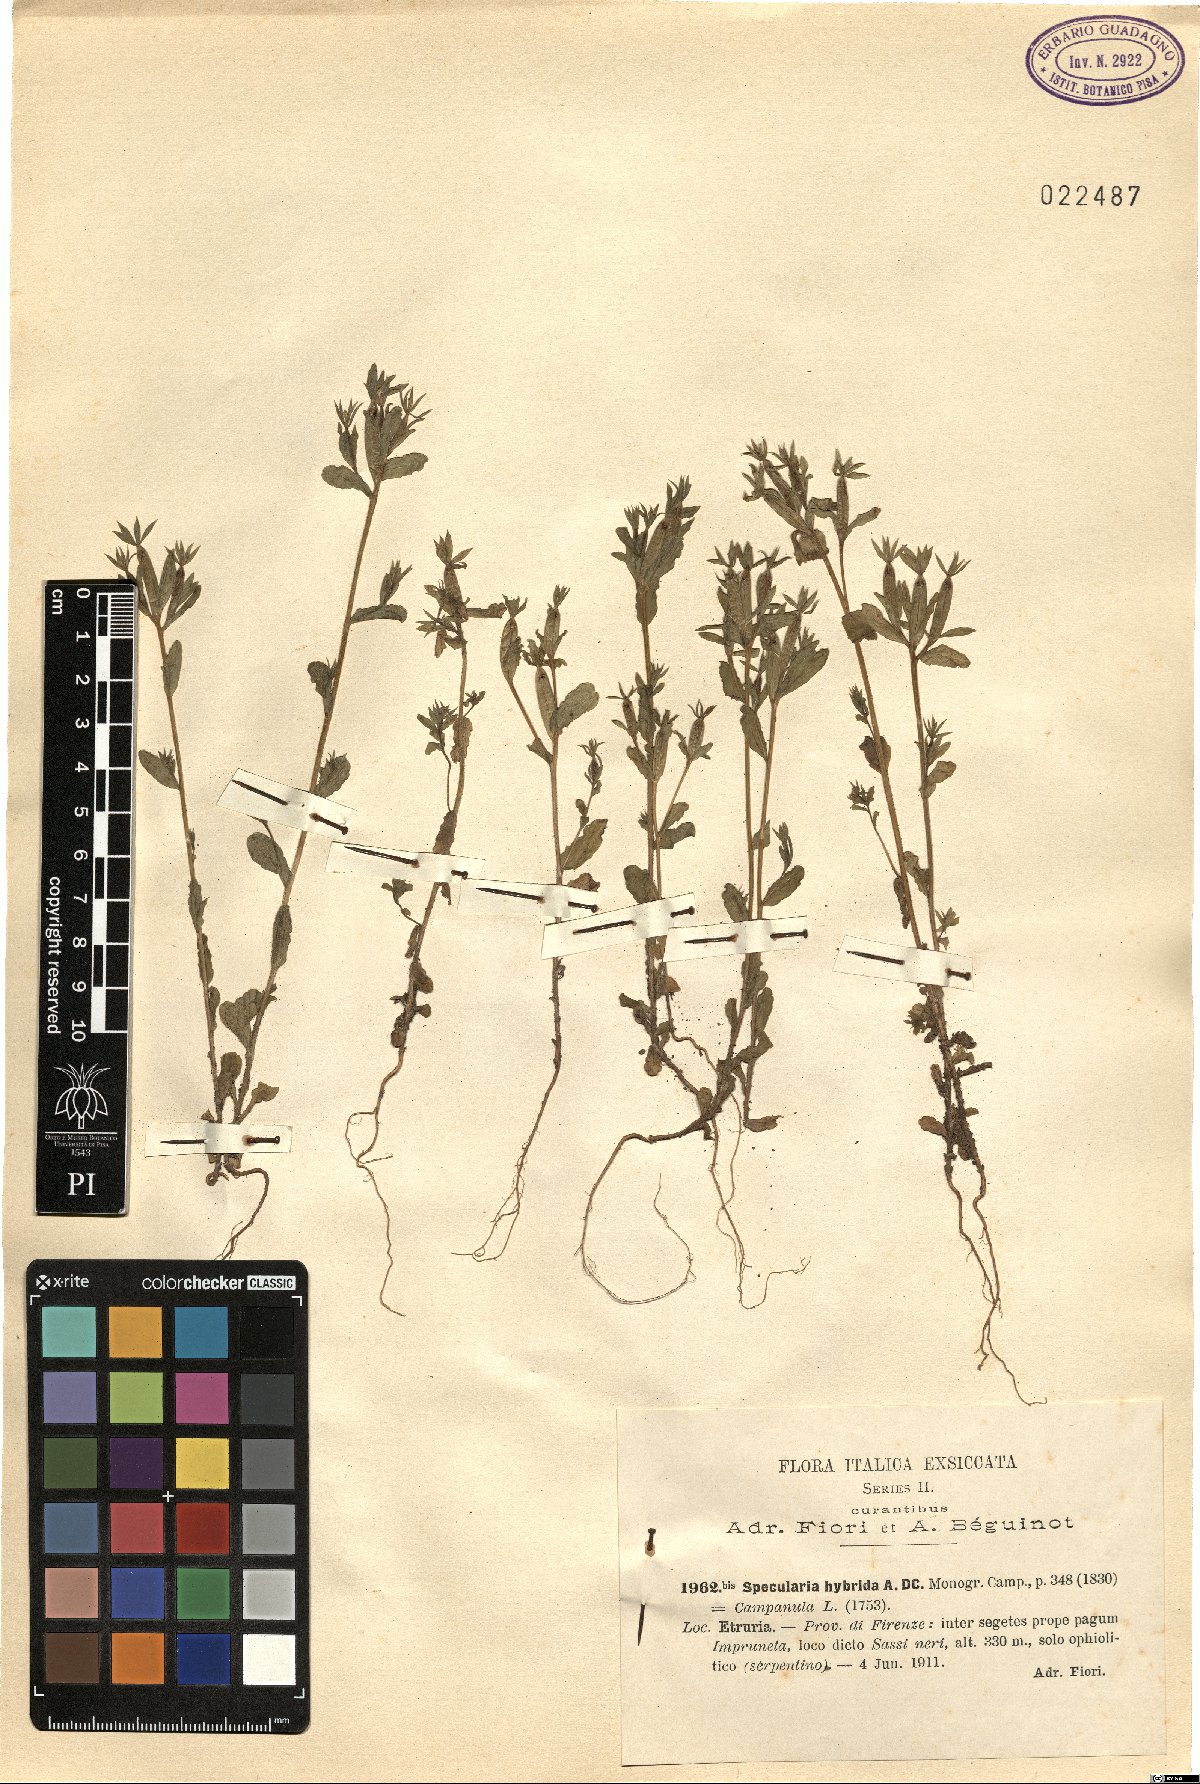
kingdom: Plantae
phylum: Tracheophyta
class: Magnoliopsida
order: Asterales
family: Campanulaceae
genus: Legousia
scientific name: Legousia hybrida
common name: Venus's-looking-glass
